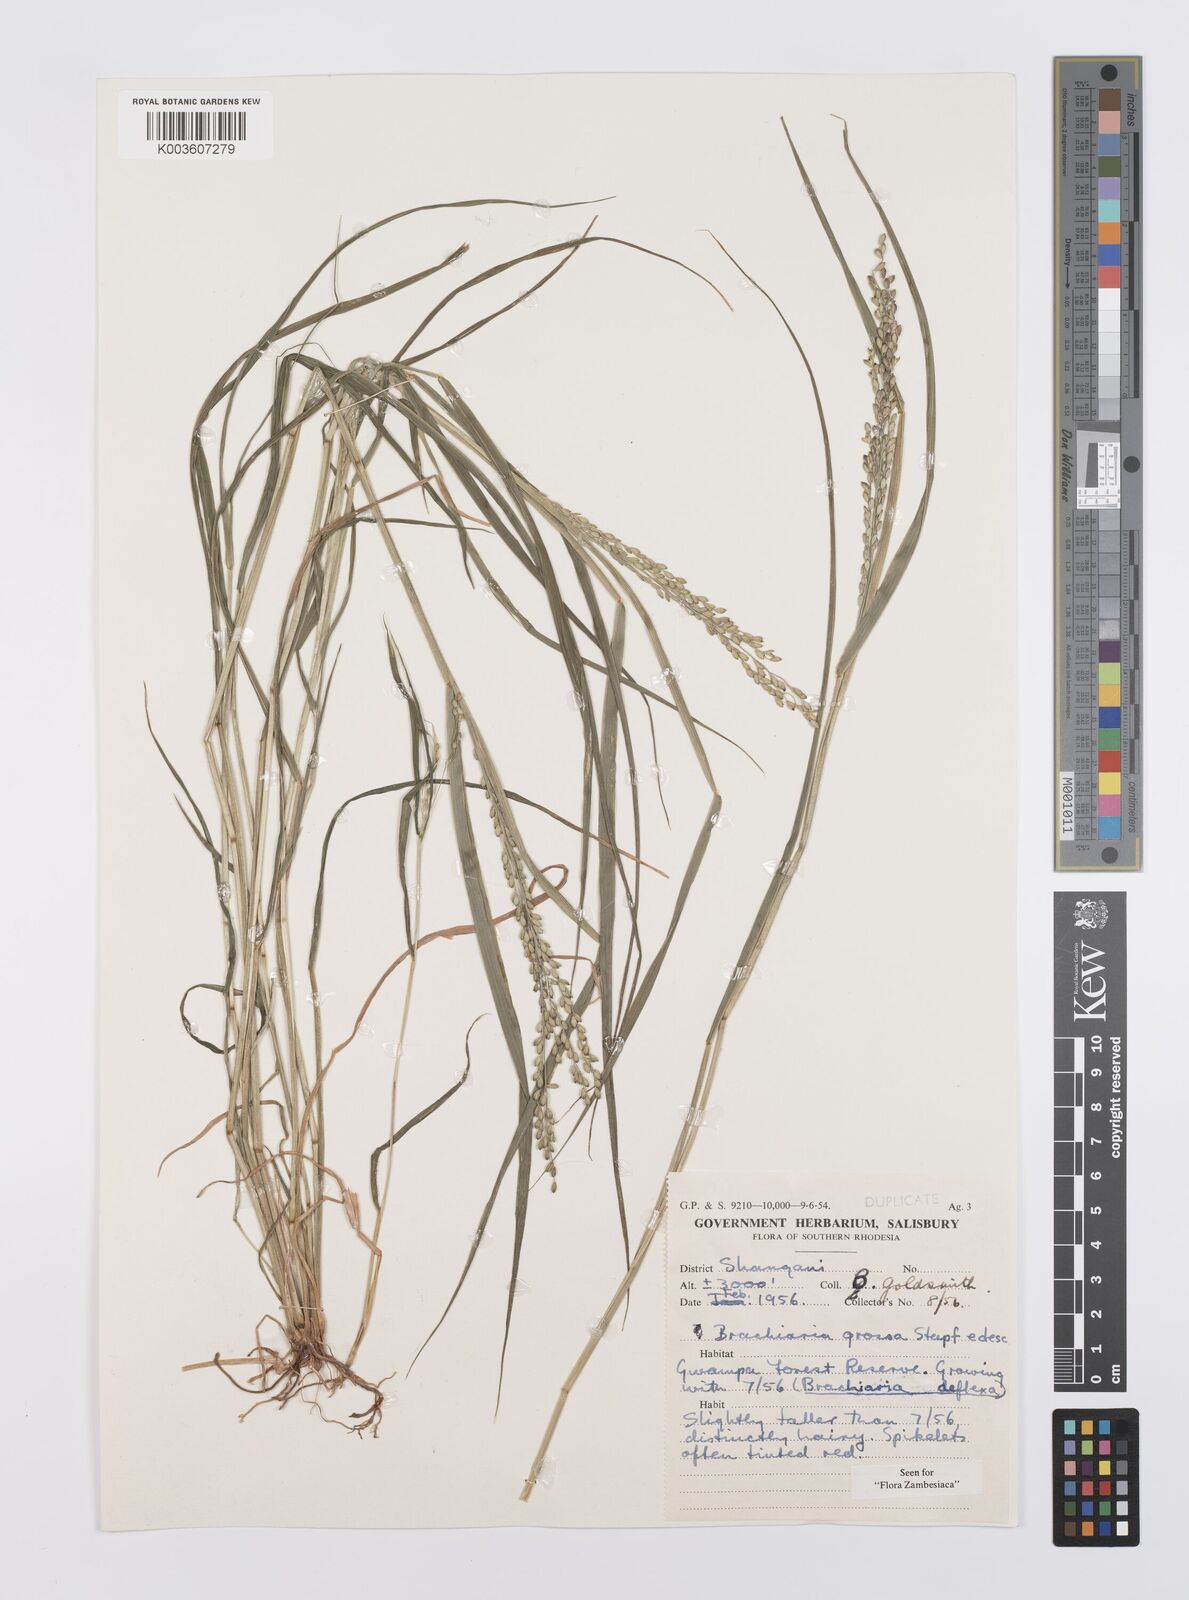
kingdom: Plantae
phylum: Tracheophyta
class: Liliopsida
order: Poales
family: Poaceae
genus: Urochloa
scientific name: Urochloa Brachiaria grossa
